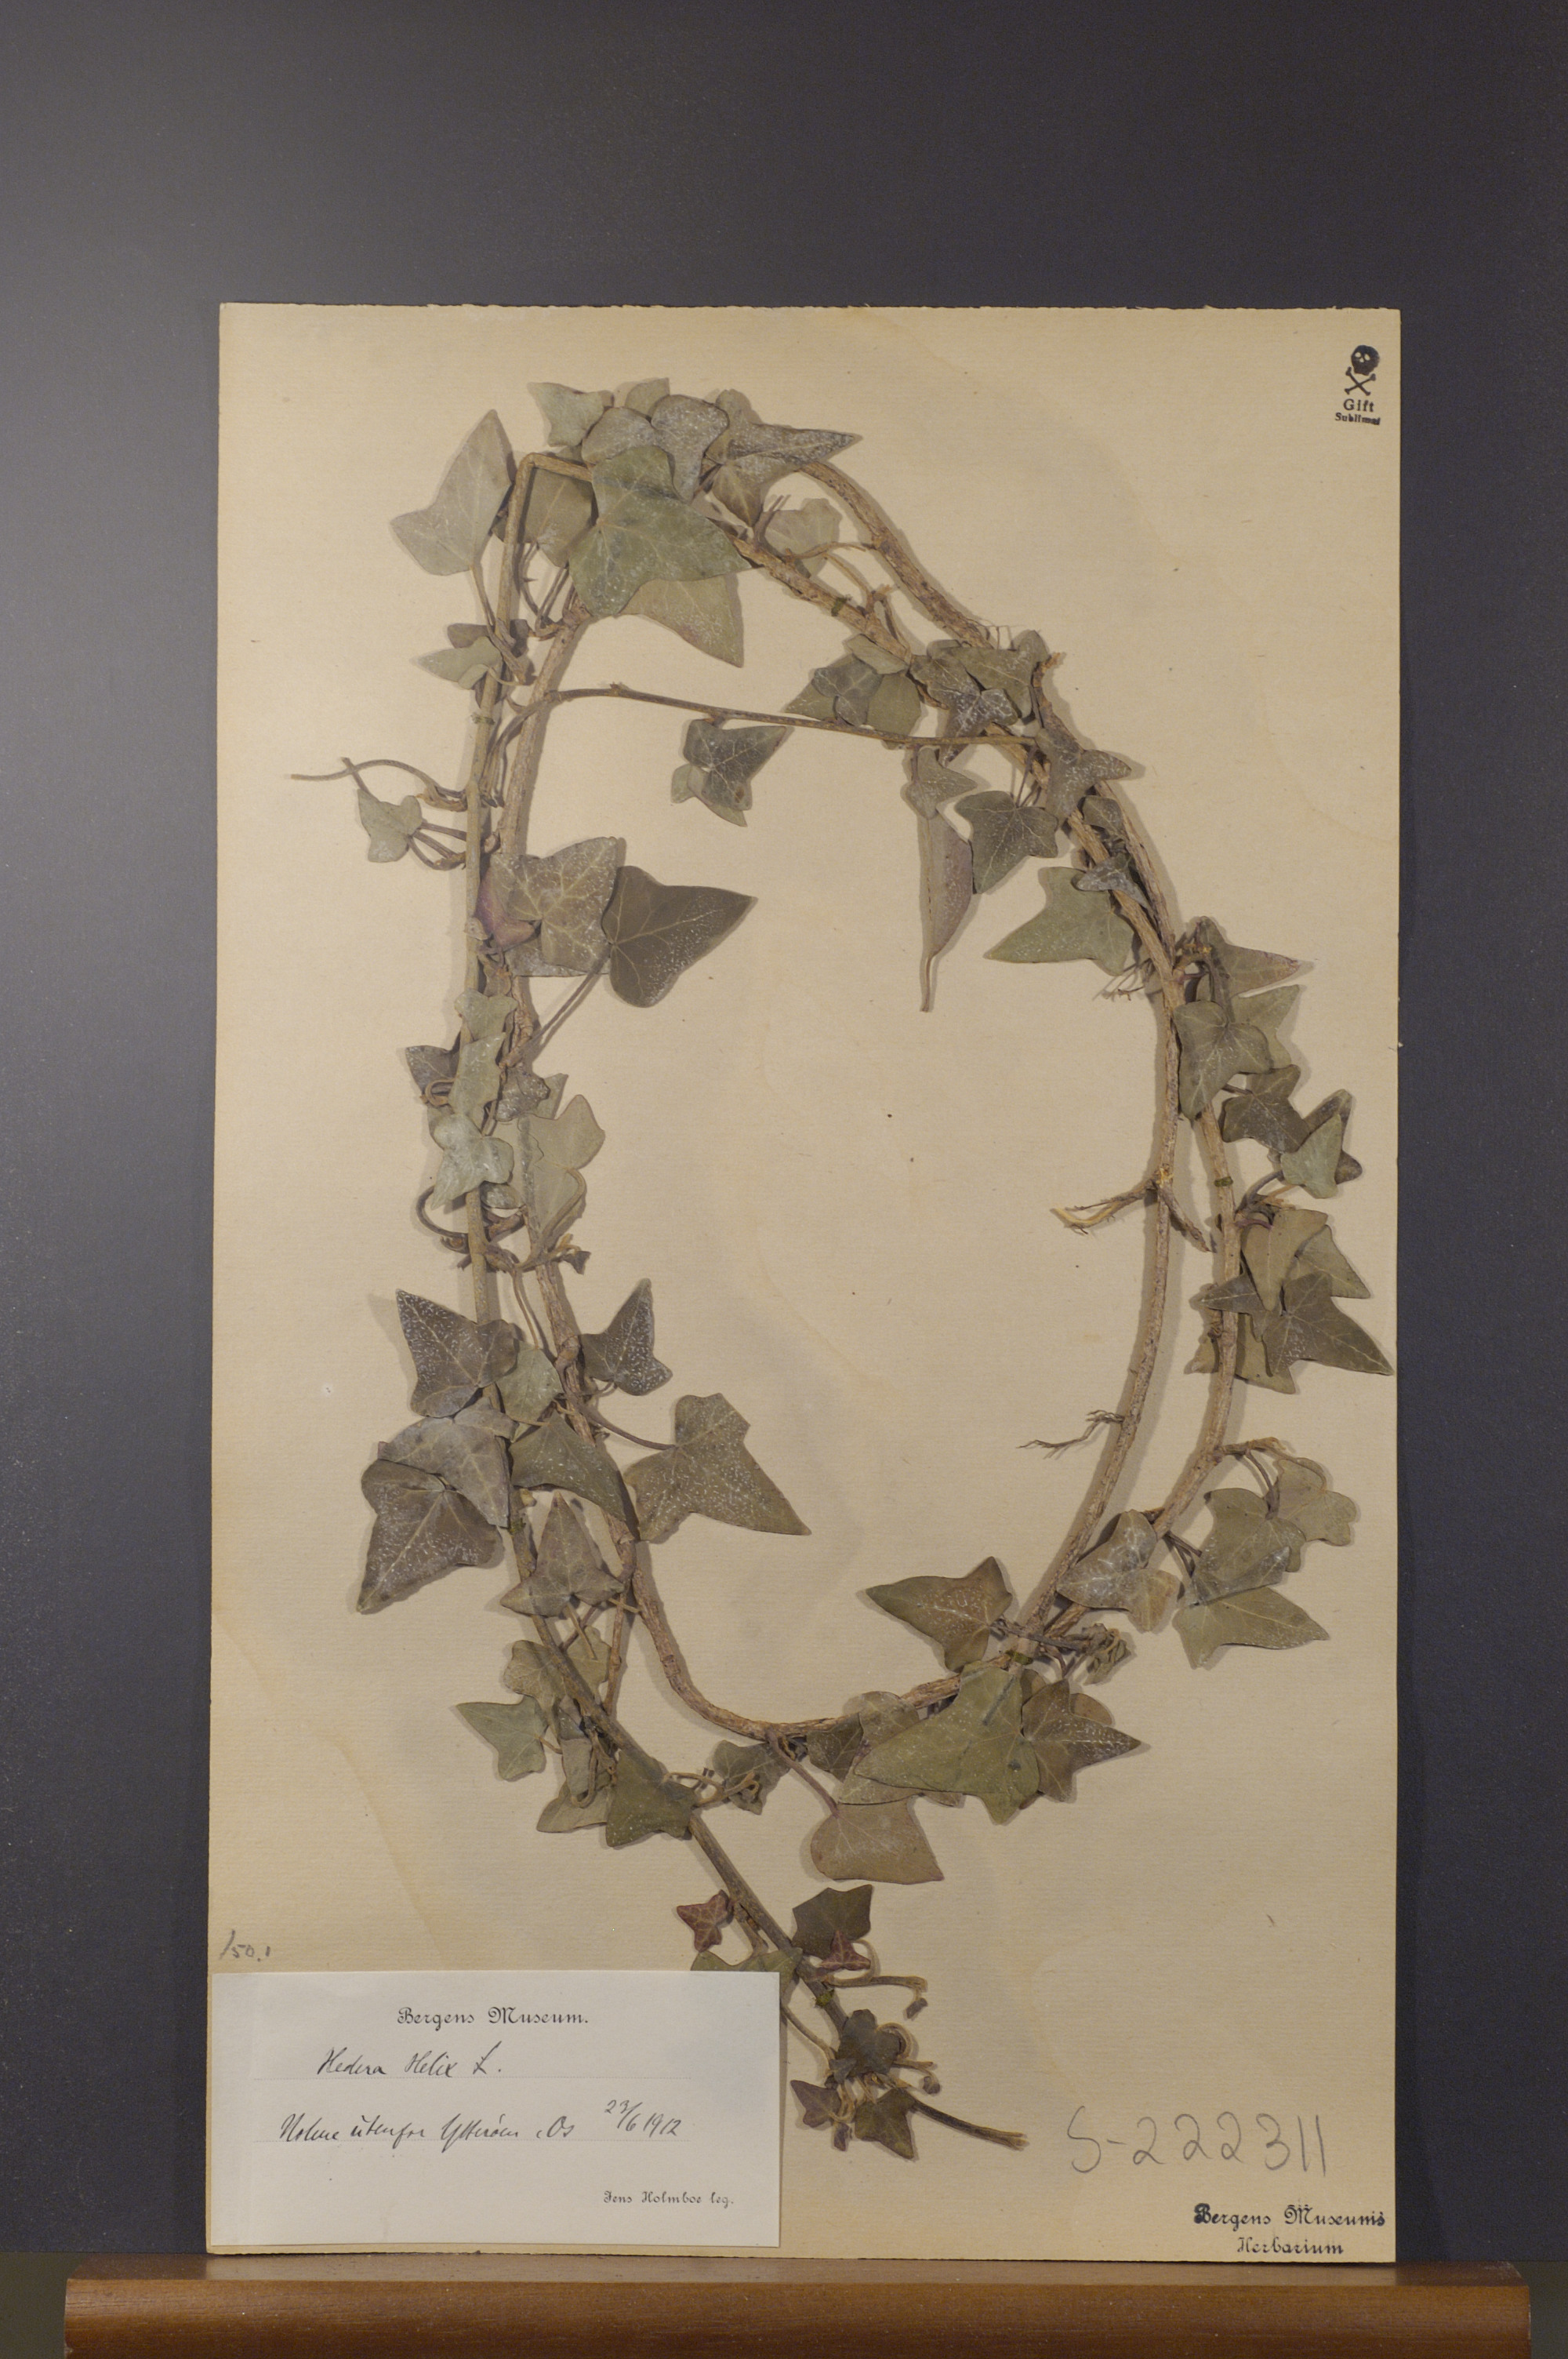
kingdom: Plantae
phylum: Tracheophyta
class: Magnoliopsida
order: Apiales
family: Araliaceae
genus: Hedera
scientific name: Hedera helix
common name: Ivy
